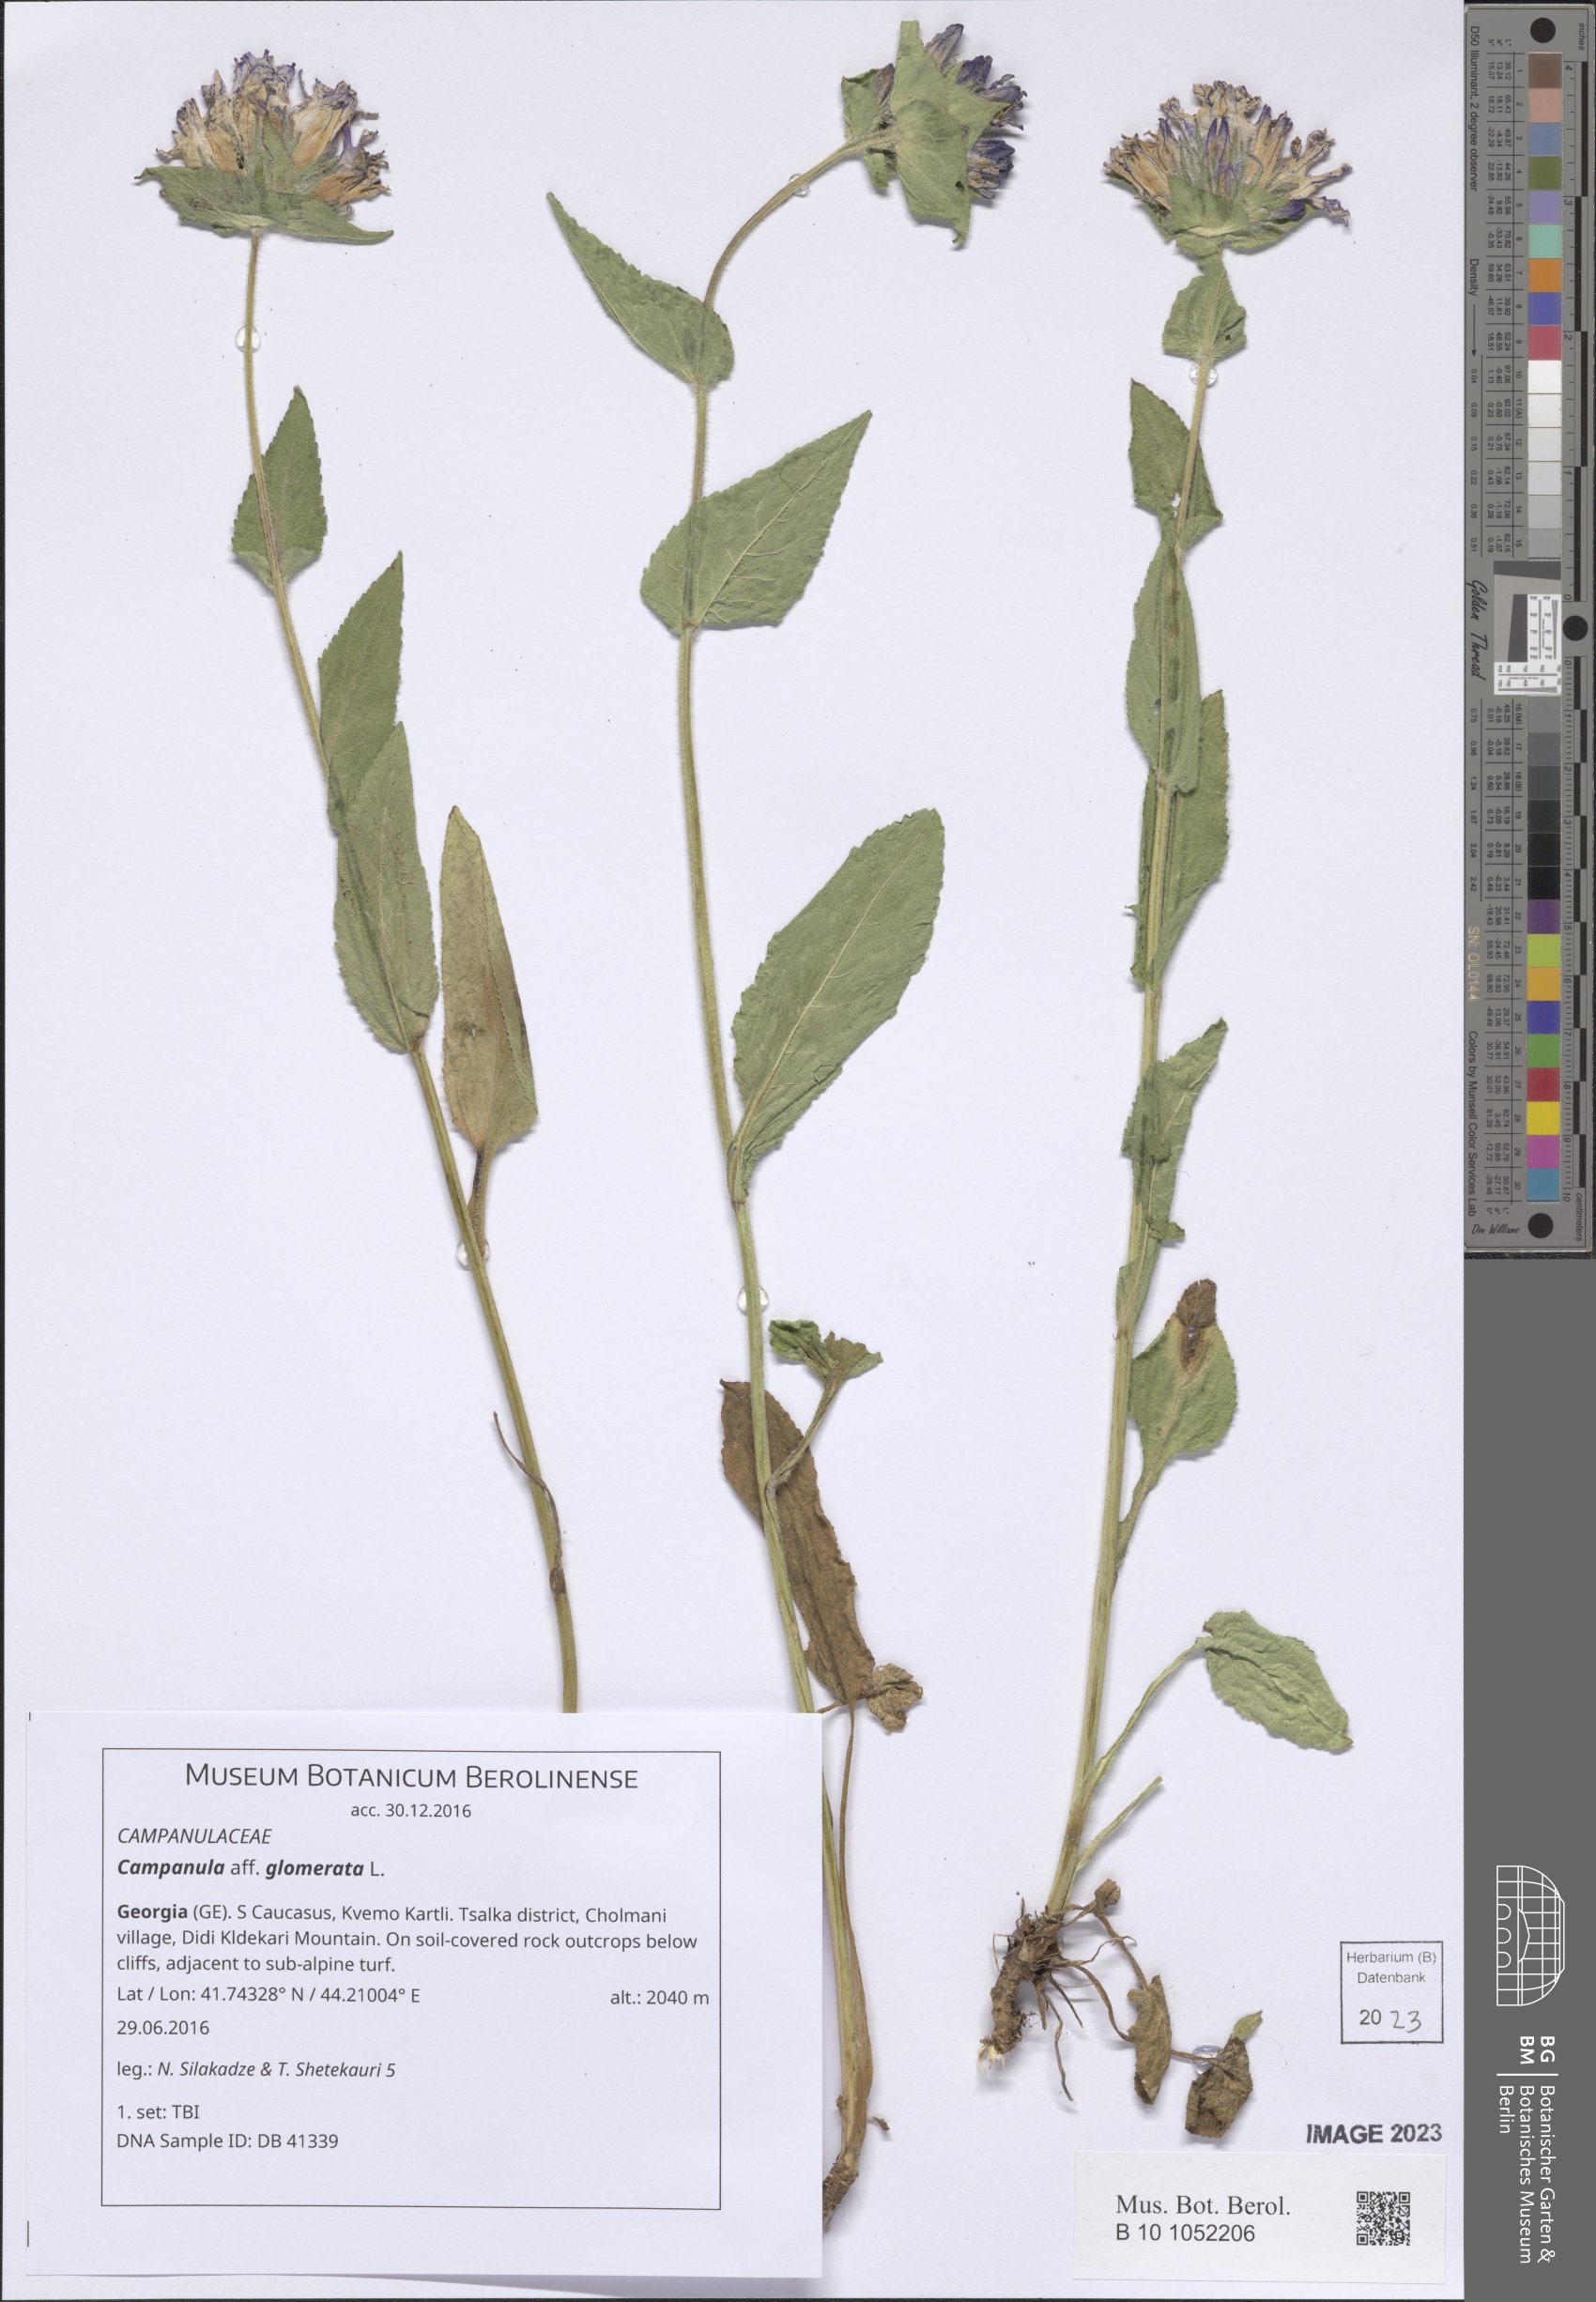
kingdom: Plantae
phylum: Tracheophyta
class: Magnoliopsida
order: Asterales
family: Campanulaceae
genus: Campanula
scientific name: Campanula glomerata
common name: Clustered bellflower
